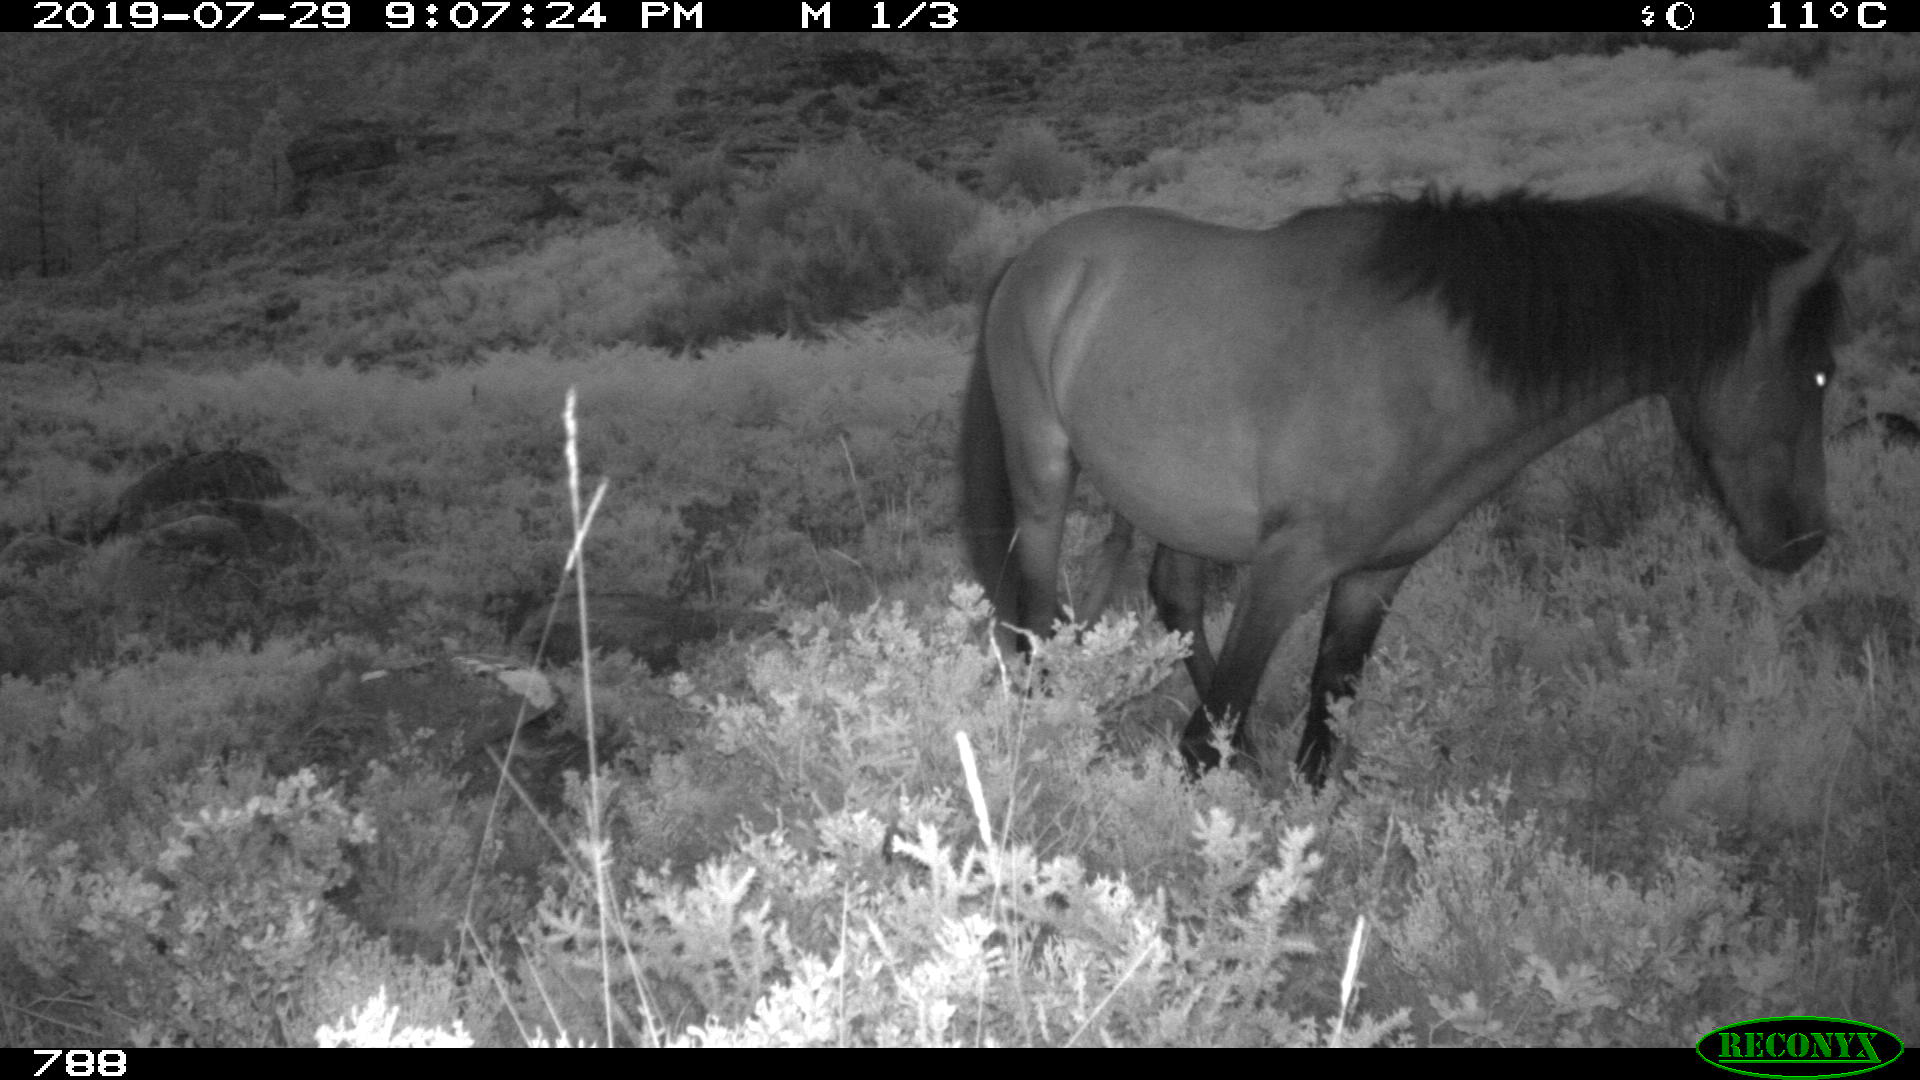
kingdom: Animalia
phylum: Chordata
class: Mammalia
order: Perissodactyla
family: Equidae
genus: Equus
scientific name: Equus caballus
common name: Horse
